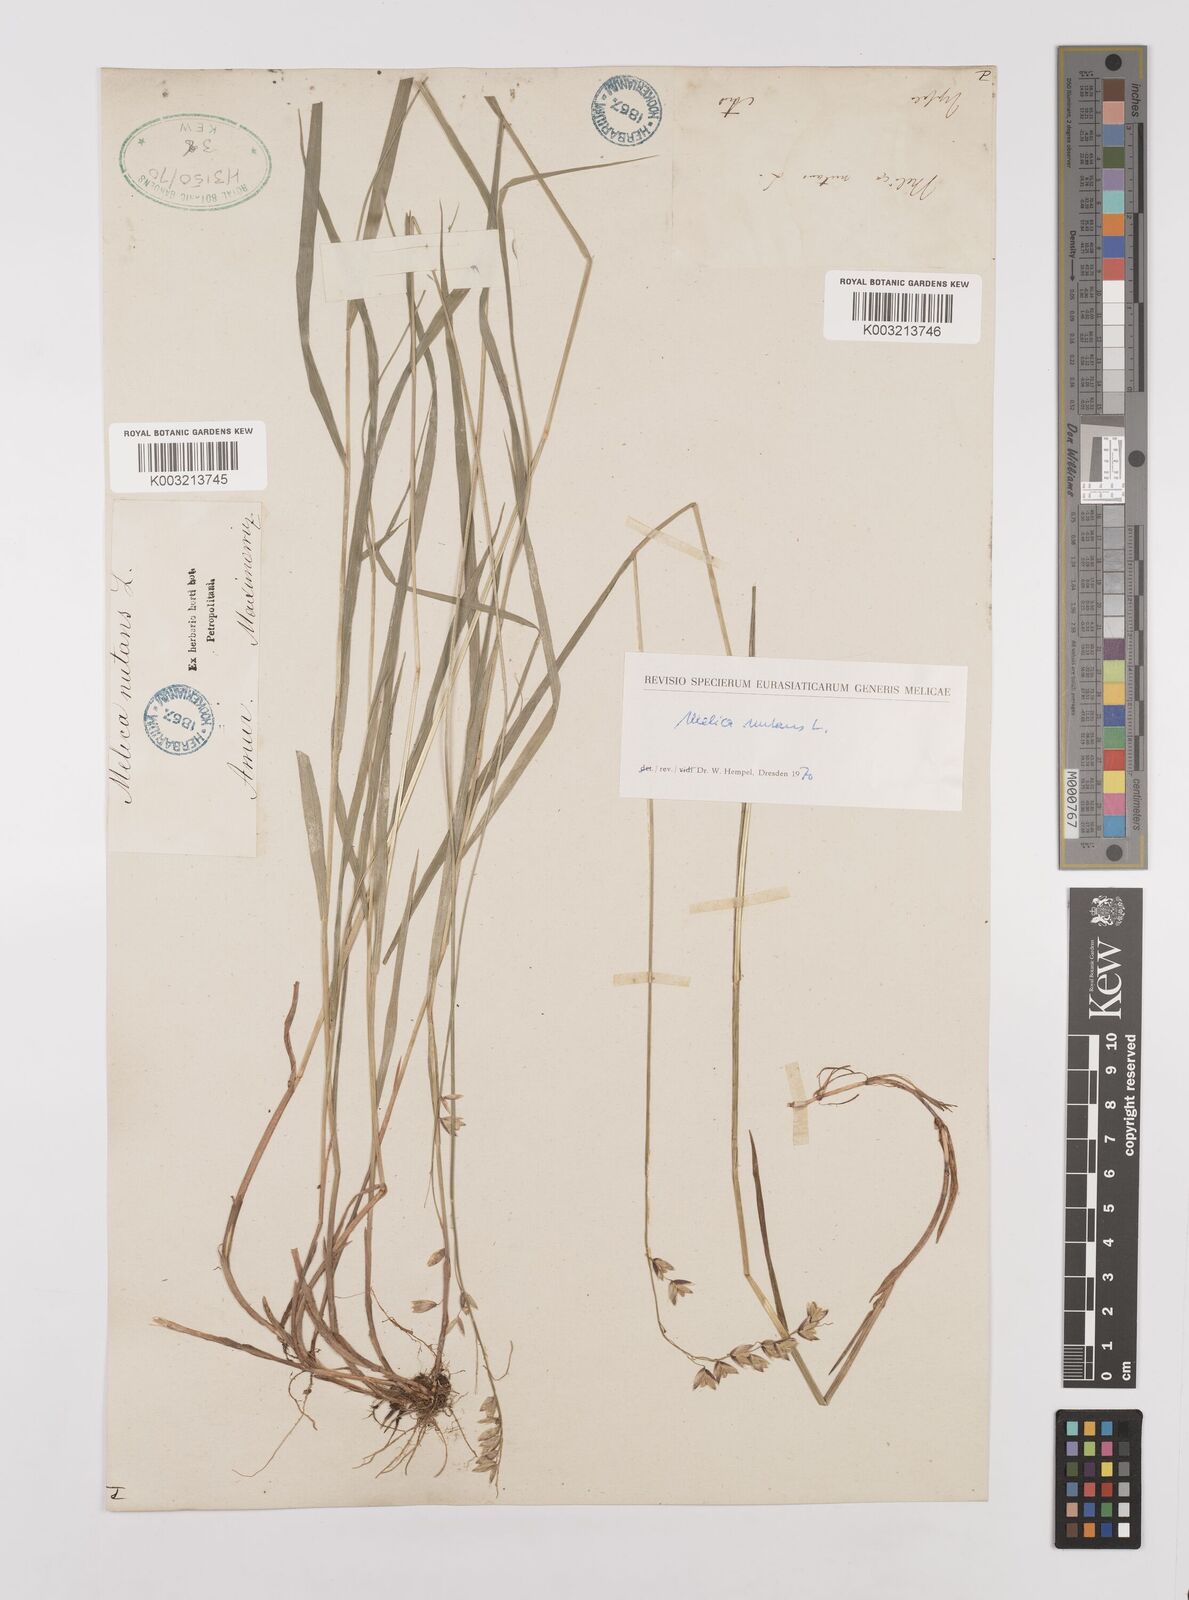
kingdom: Plantae
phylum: Tracheophyta
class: Liliopsida
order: Poales
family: Poaceae
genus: Melica
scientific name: Melica
